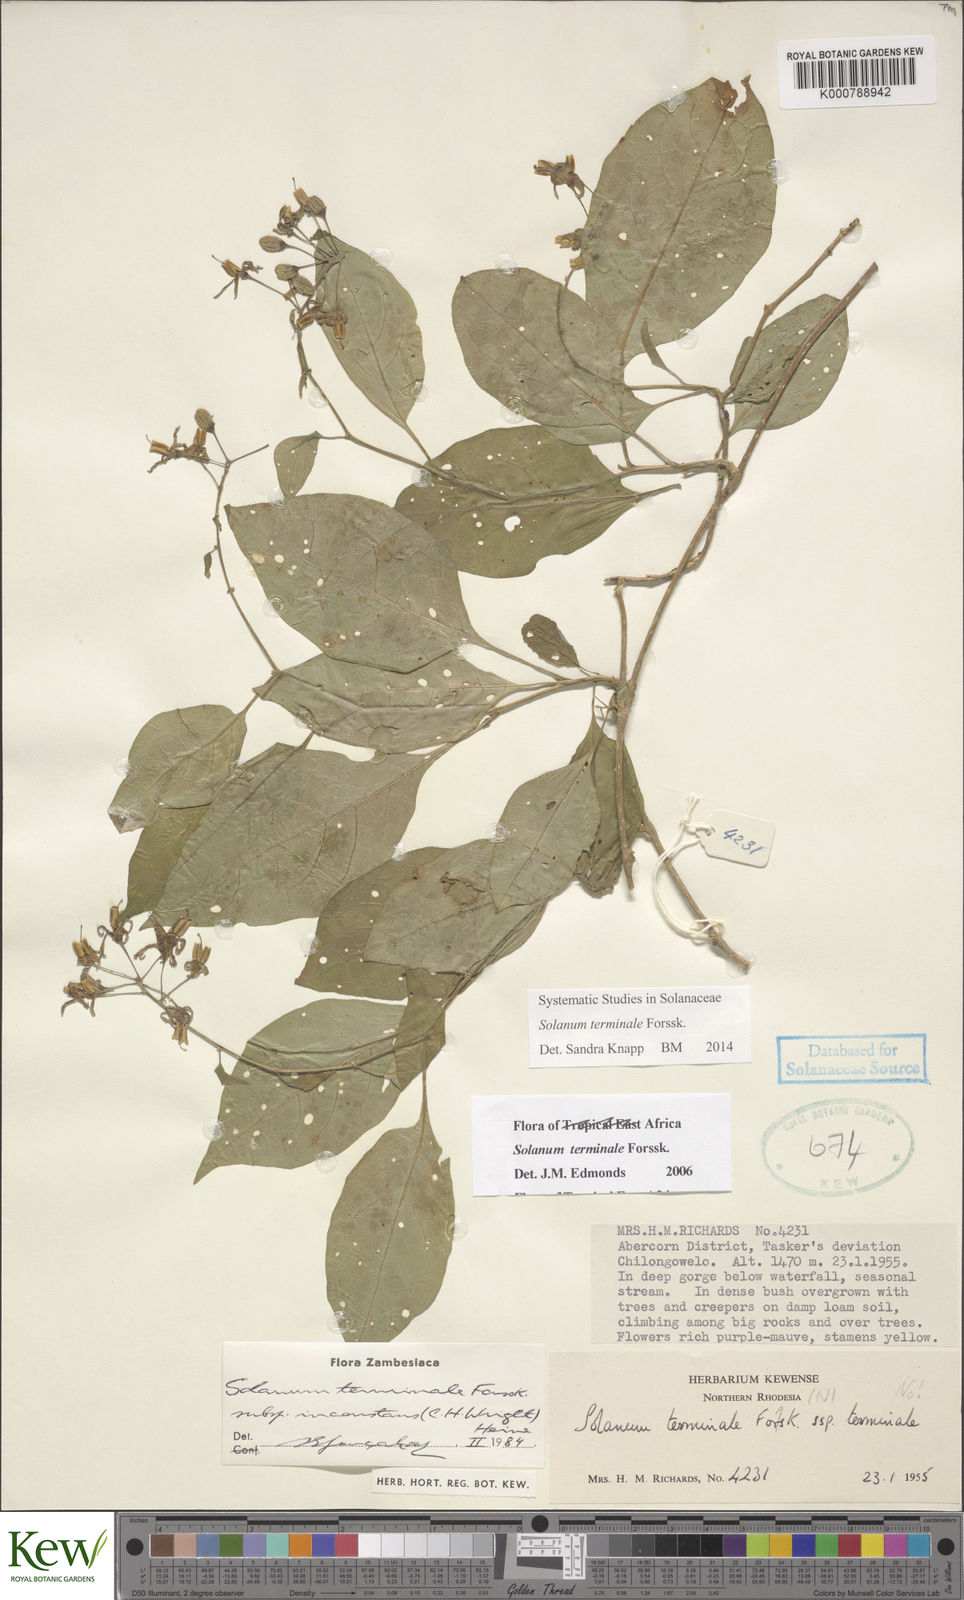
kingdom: Plantae
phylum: Tracheophyta
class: Magnoliopsida
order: Solanales
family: Solanaceae
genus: Solanum
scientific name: Solanum terminale
